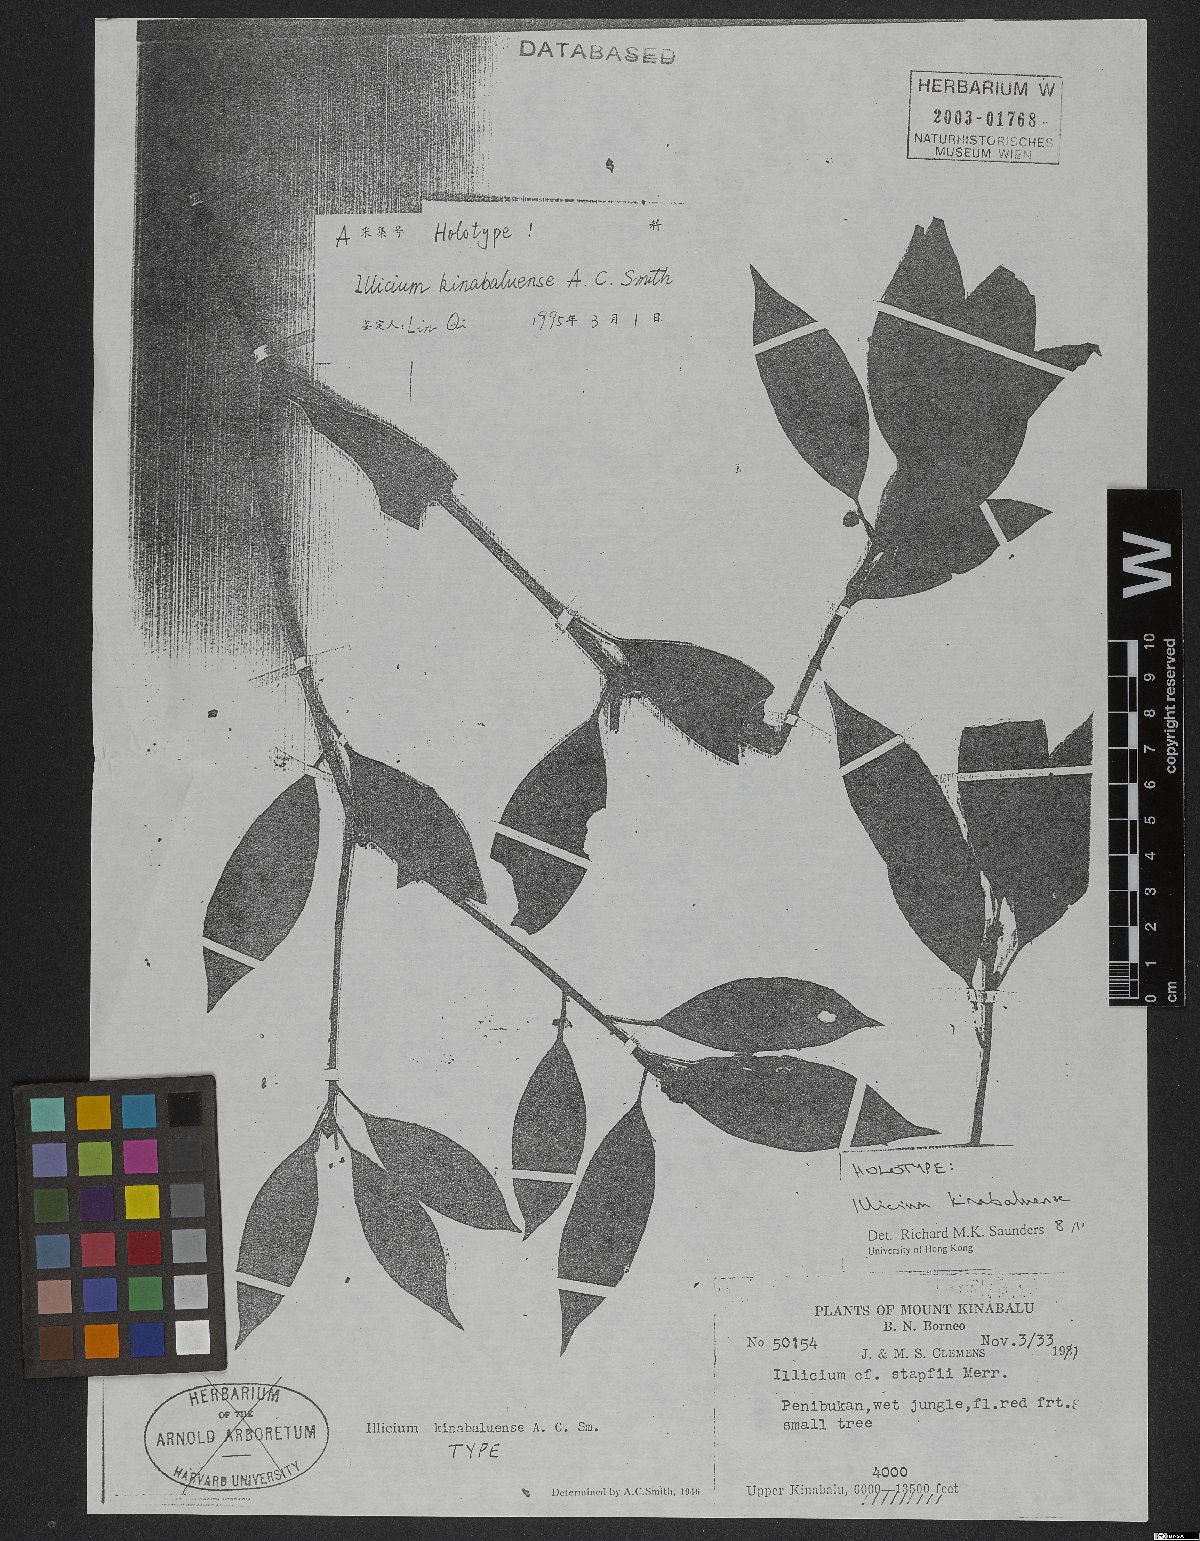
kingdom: Plantae
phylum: Tracheophyta
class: Magnoliopsida
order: Austrobaileyales
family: Schisandraceae
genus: Illicium
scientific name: Illicium stapfii
